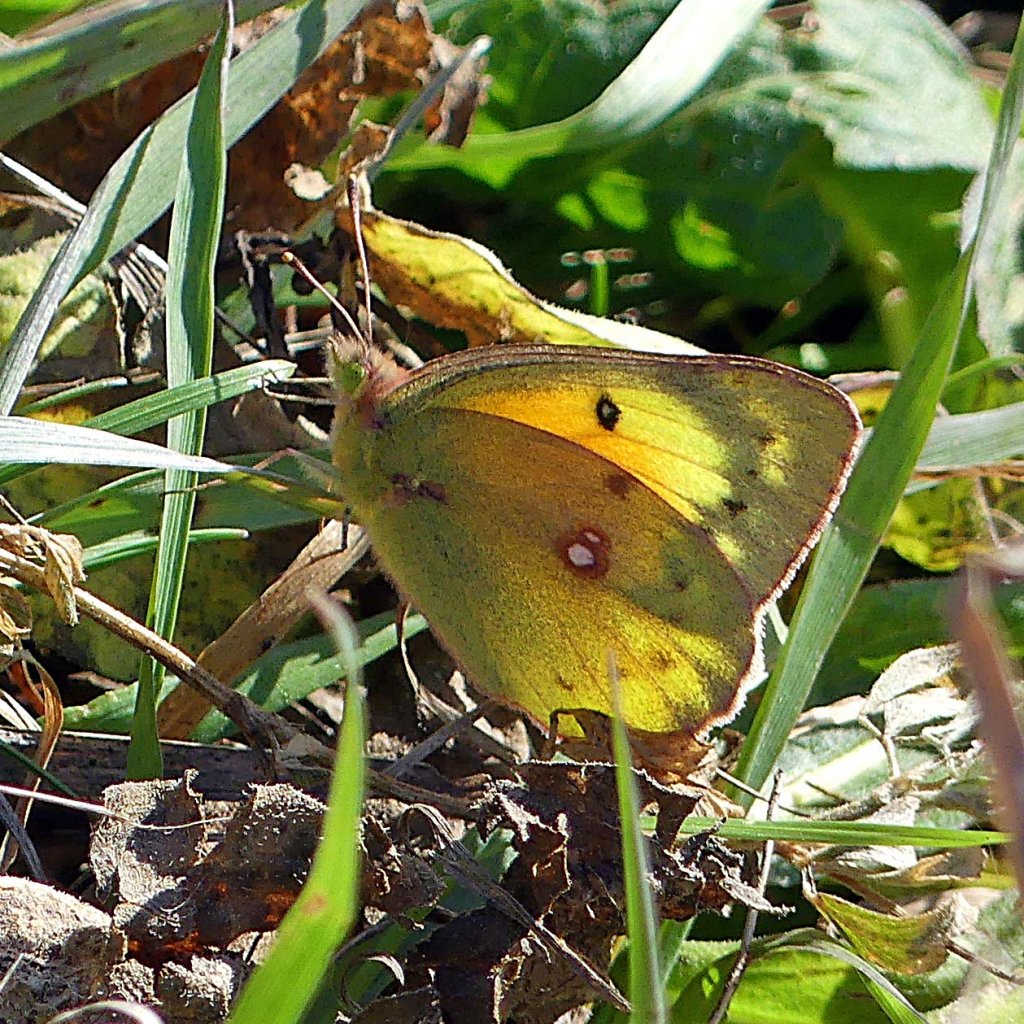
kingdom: Animalia
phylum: Arthropoda
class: Insecta
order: Lepidoptera
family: Pieridae
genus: Colias
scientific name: Colias eurytheme
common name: Orange Sulphur
